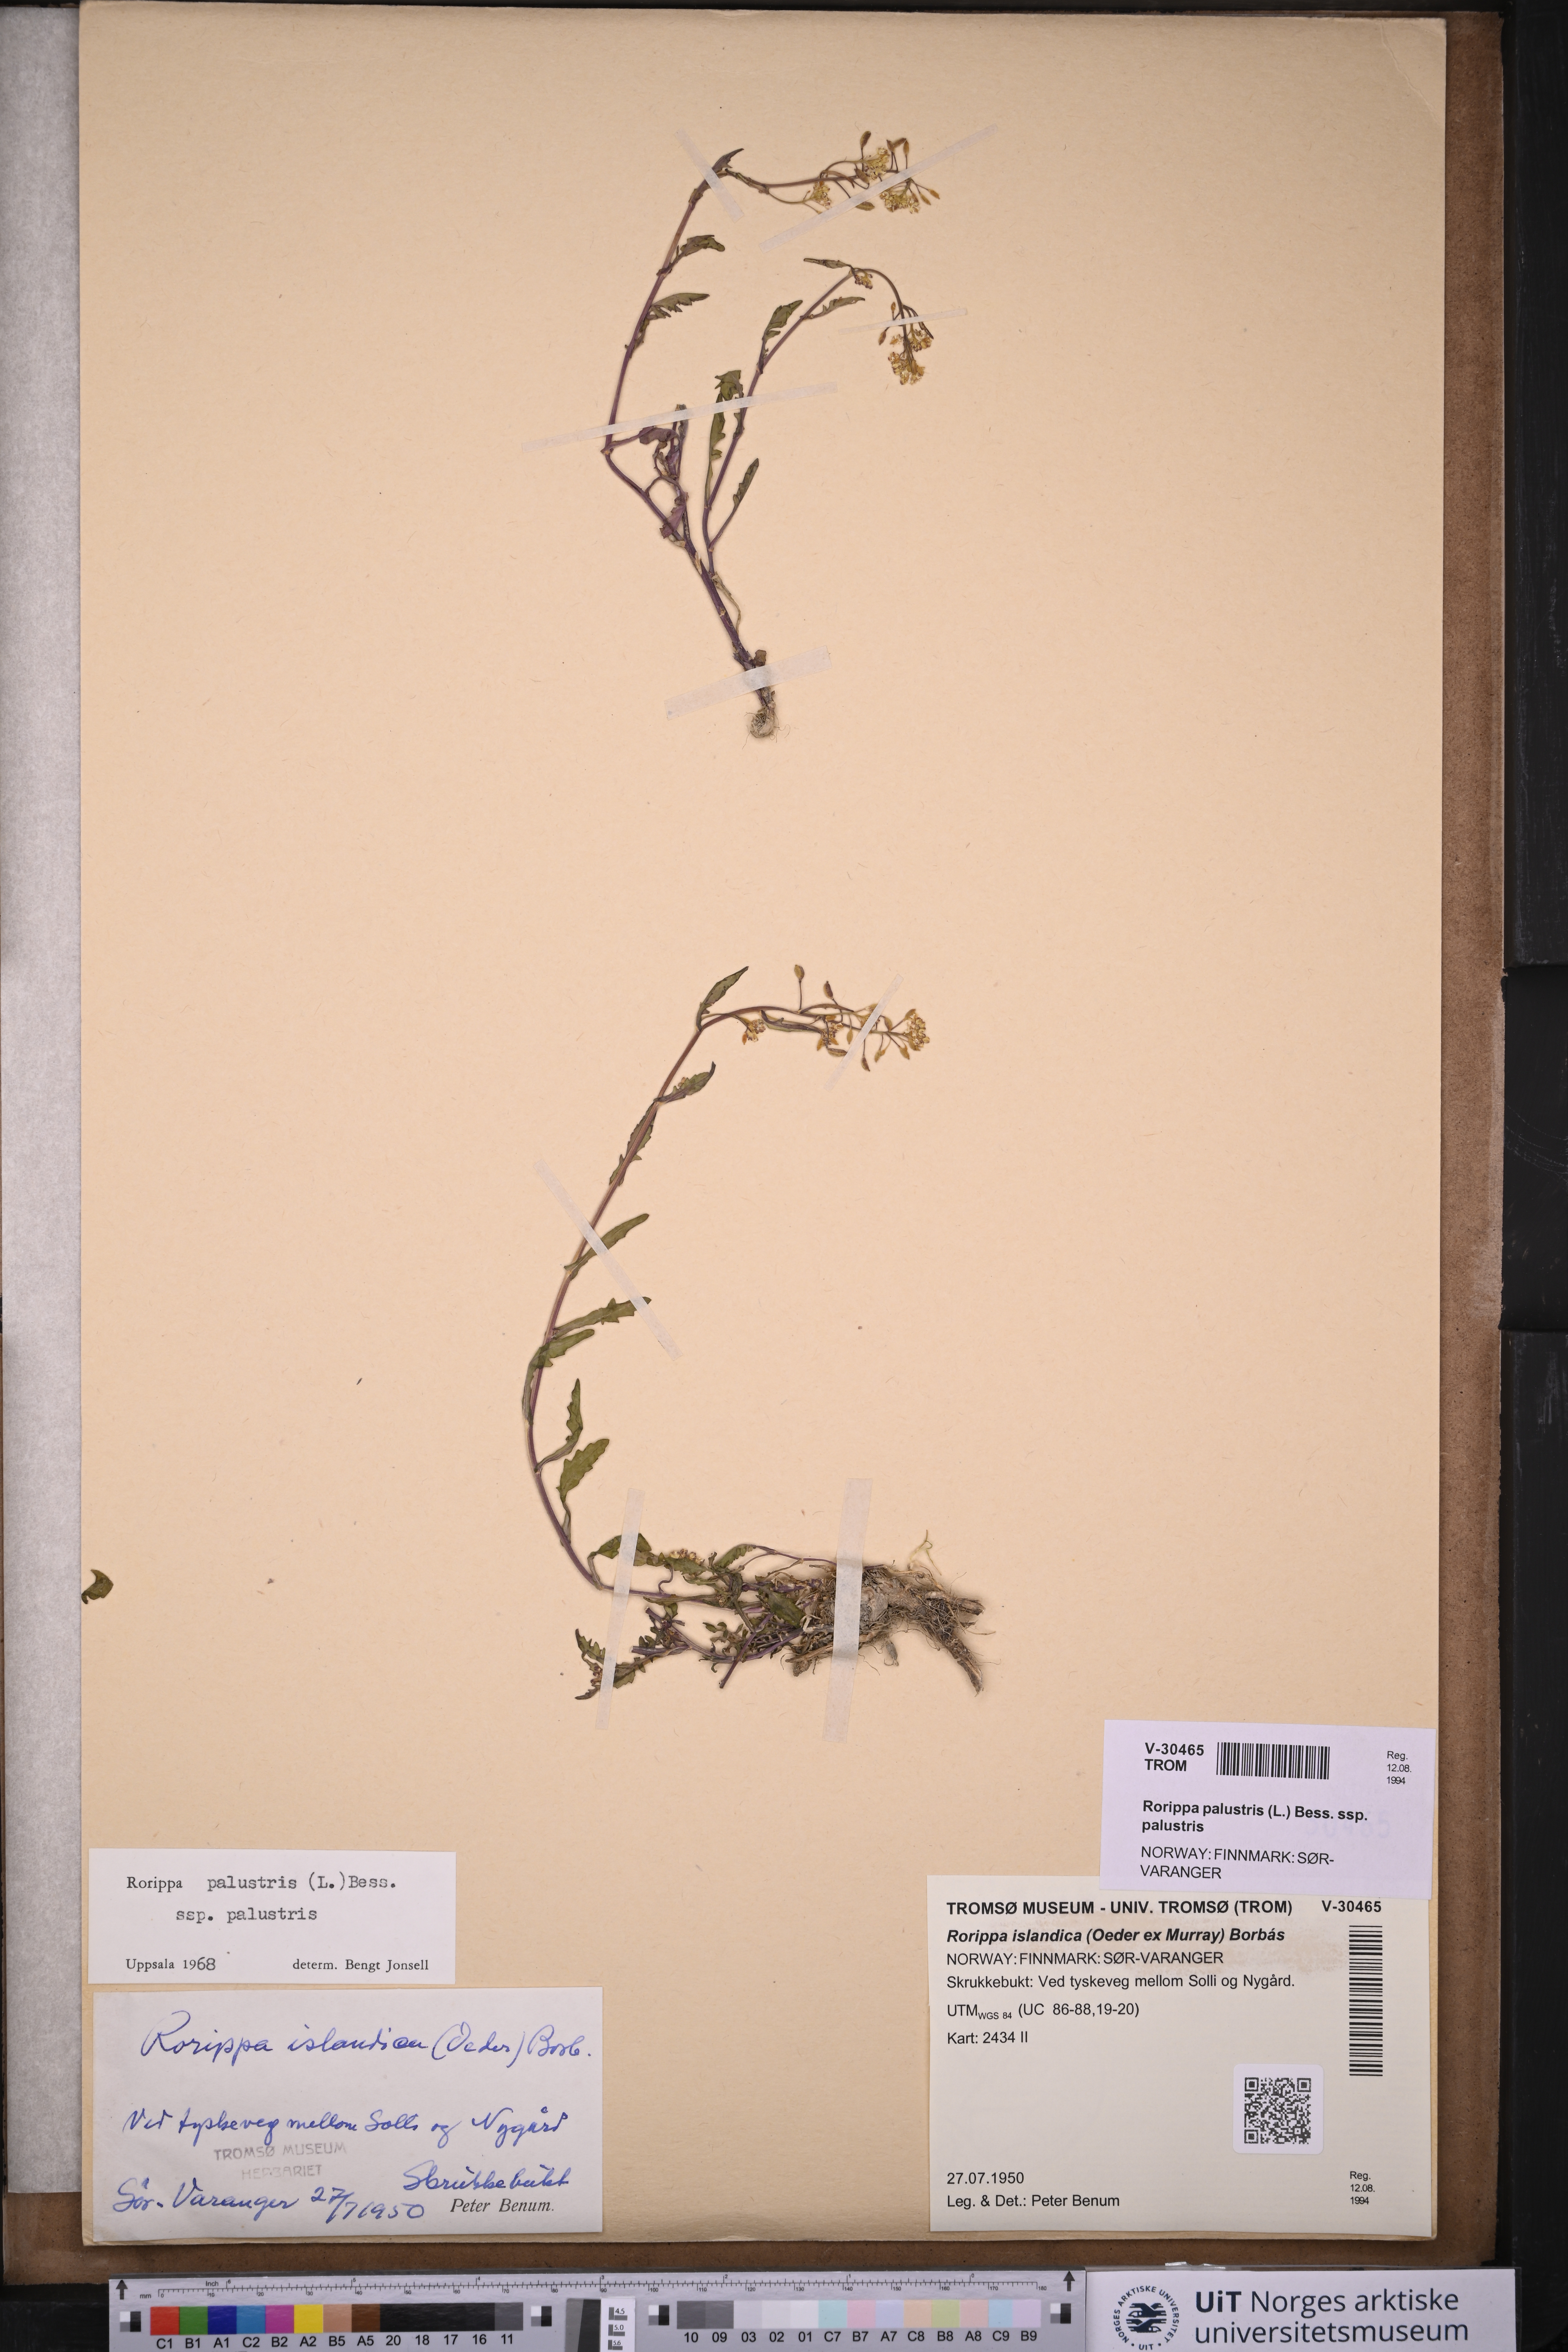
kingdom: Plantae
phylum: Tracheophyta
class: Magnoliopsida
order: Brassicales
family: Brassicaceae
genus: Rorippa
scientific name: Rorippa palustris
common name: Marsh yellow-cress
